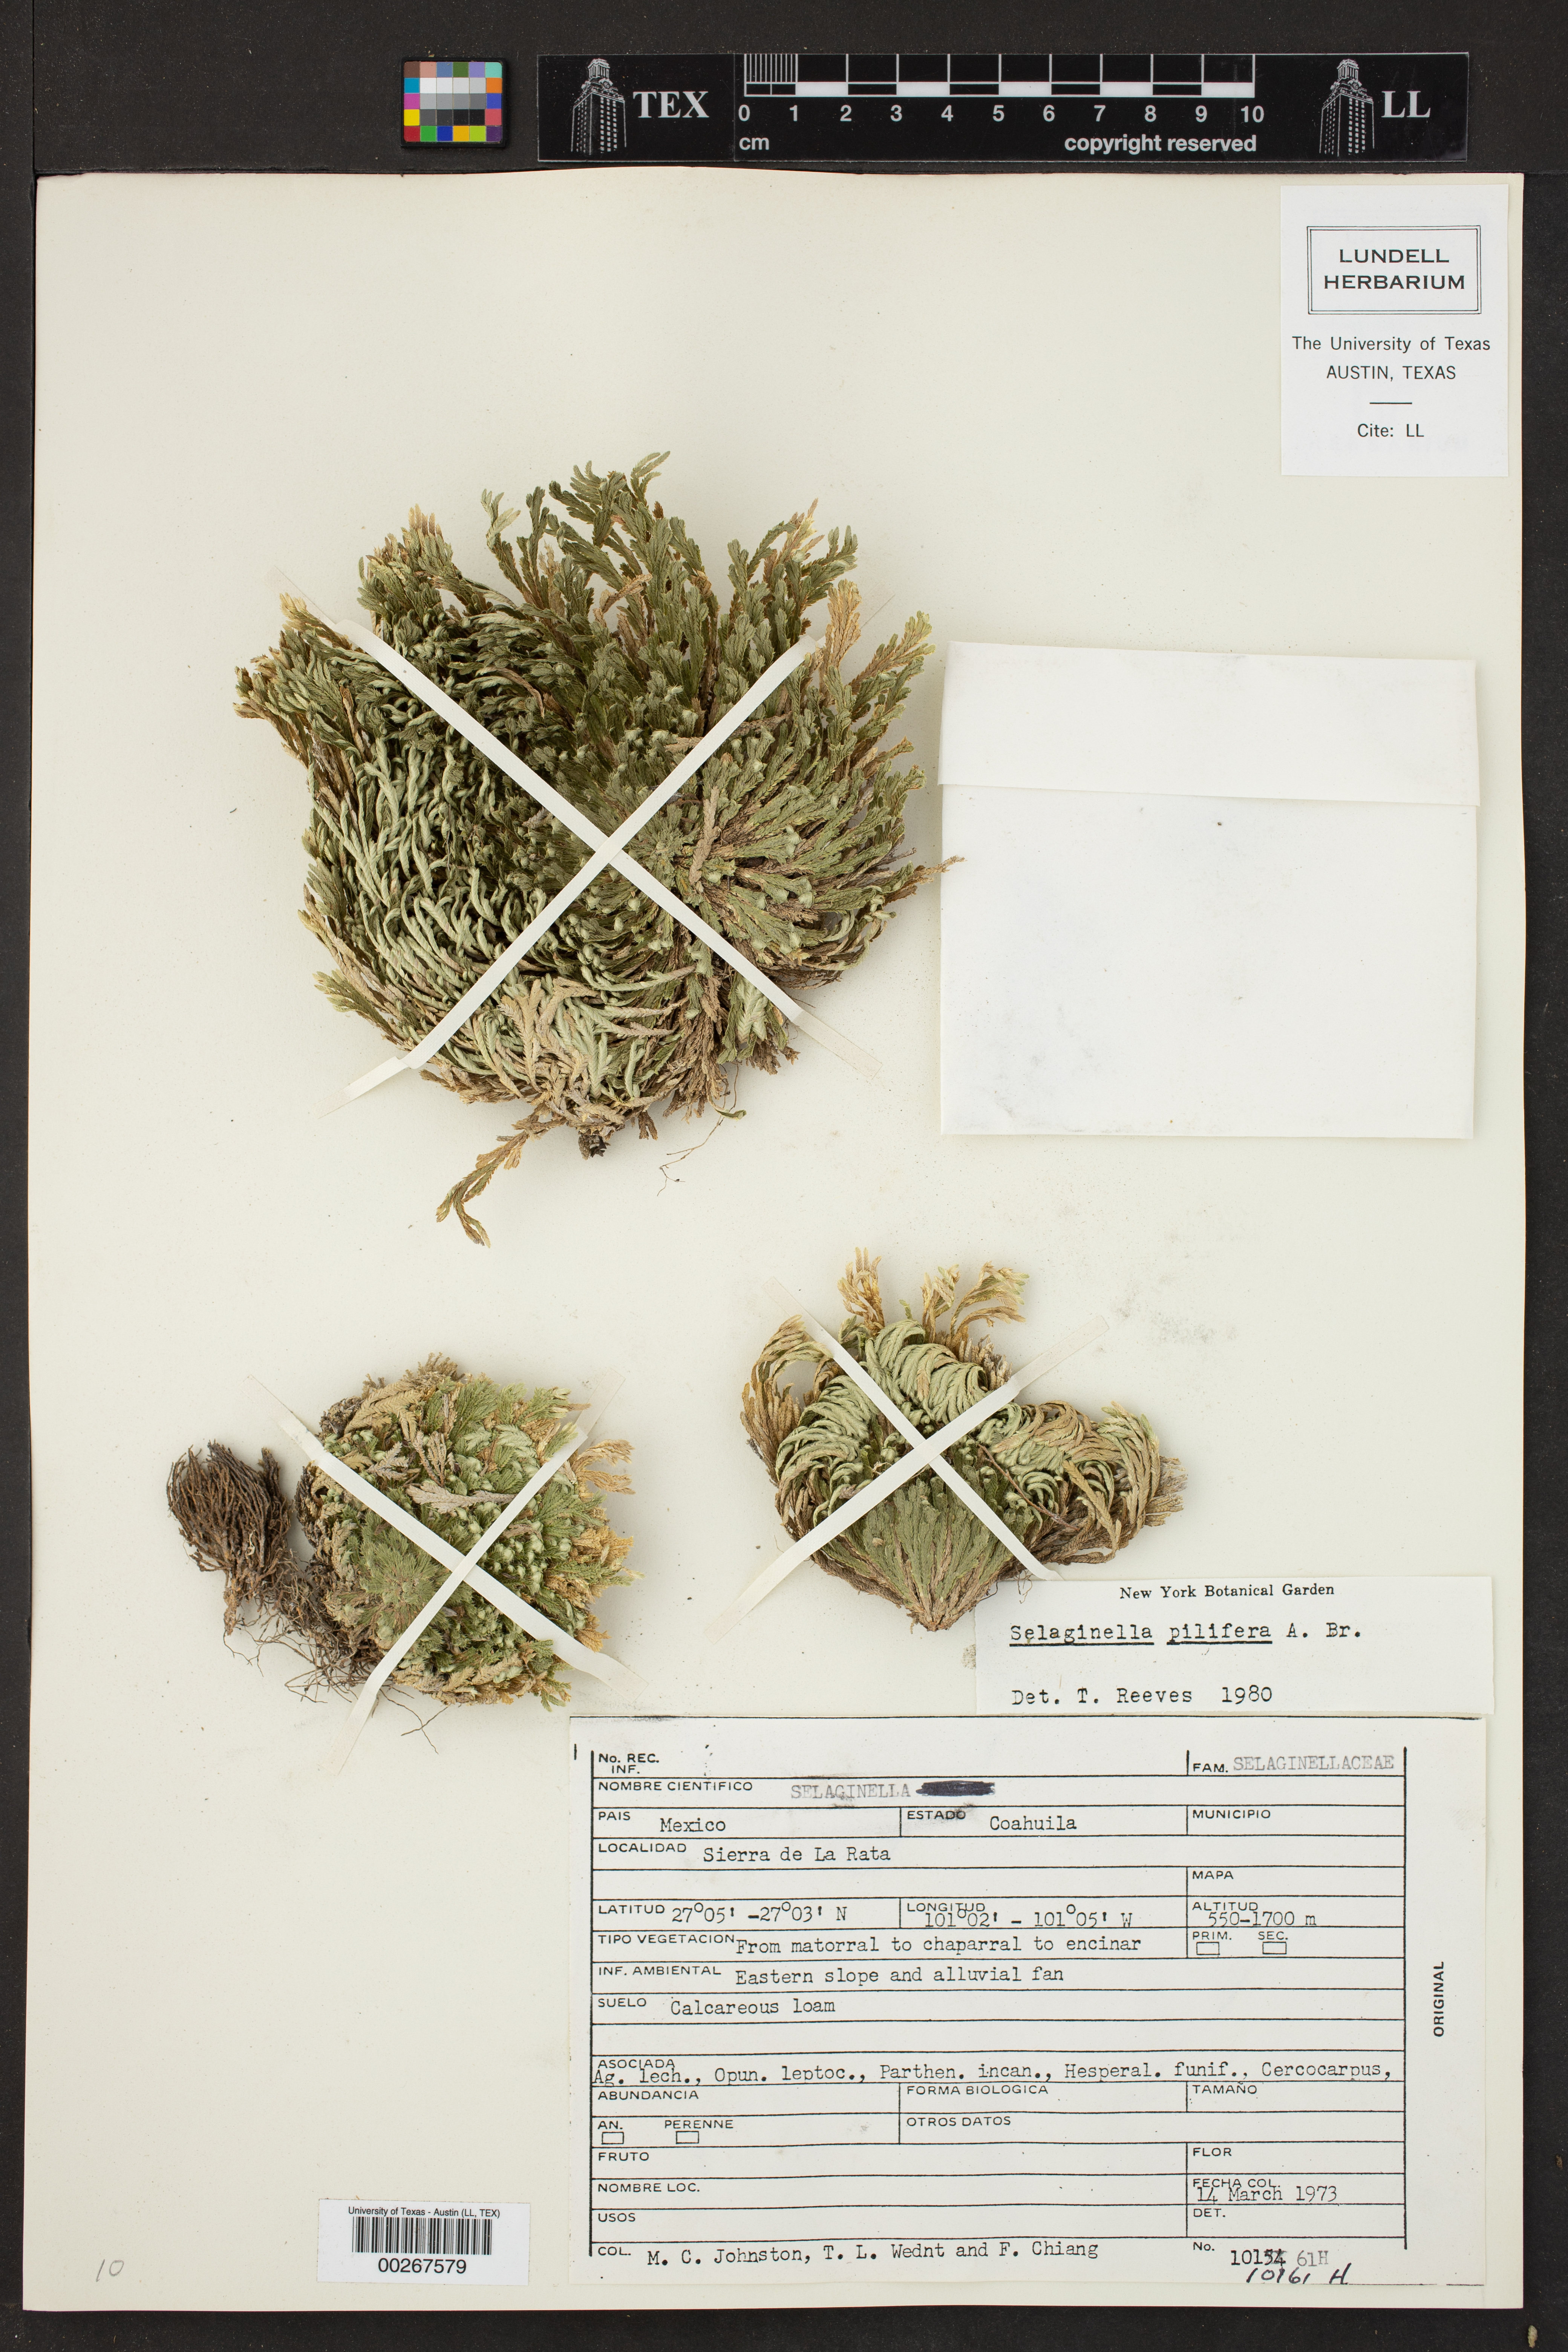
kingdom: Plantae
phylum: Tracheophyta
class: Lycopodiopsida
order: Selaginellales
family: Selaginellaceae
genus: Selaginella
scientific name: Selaginella pilifera
